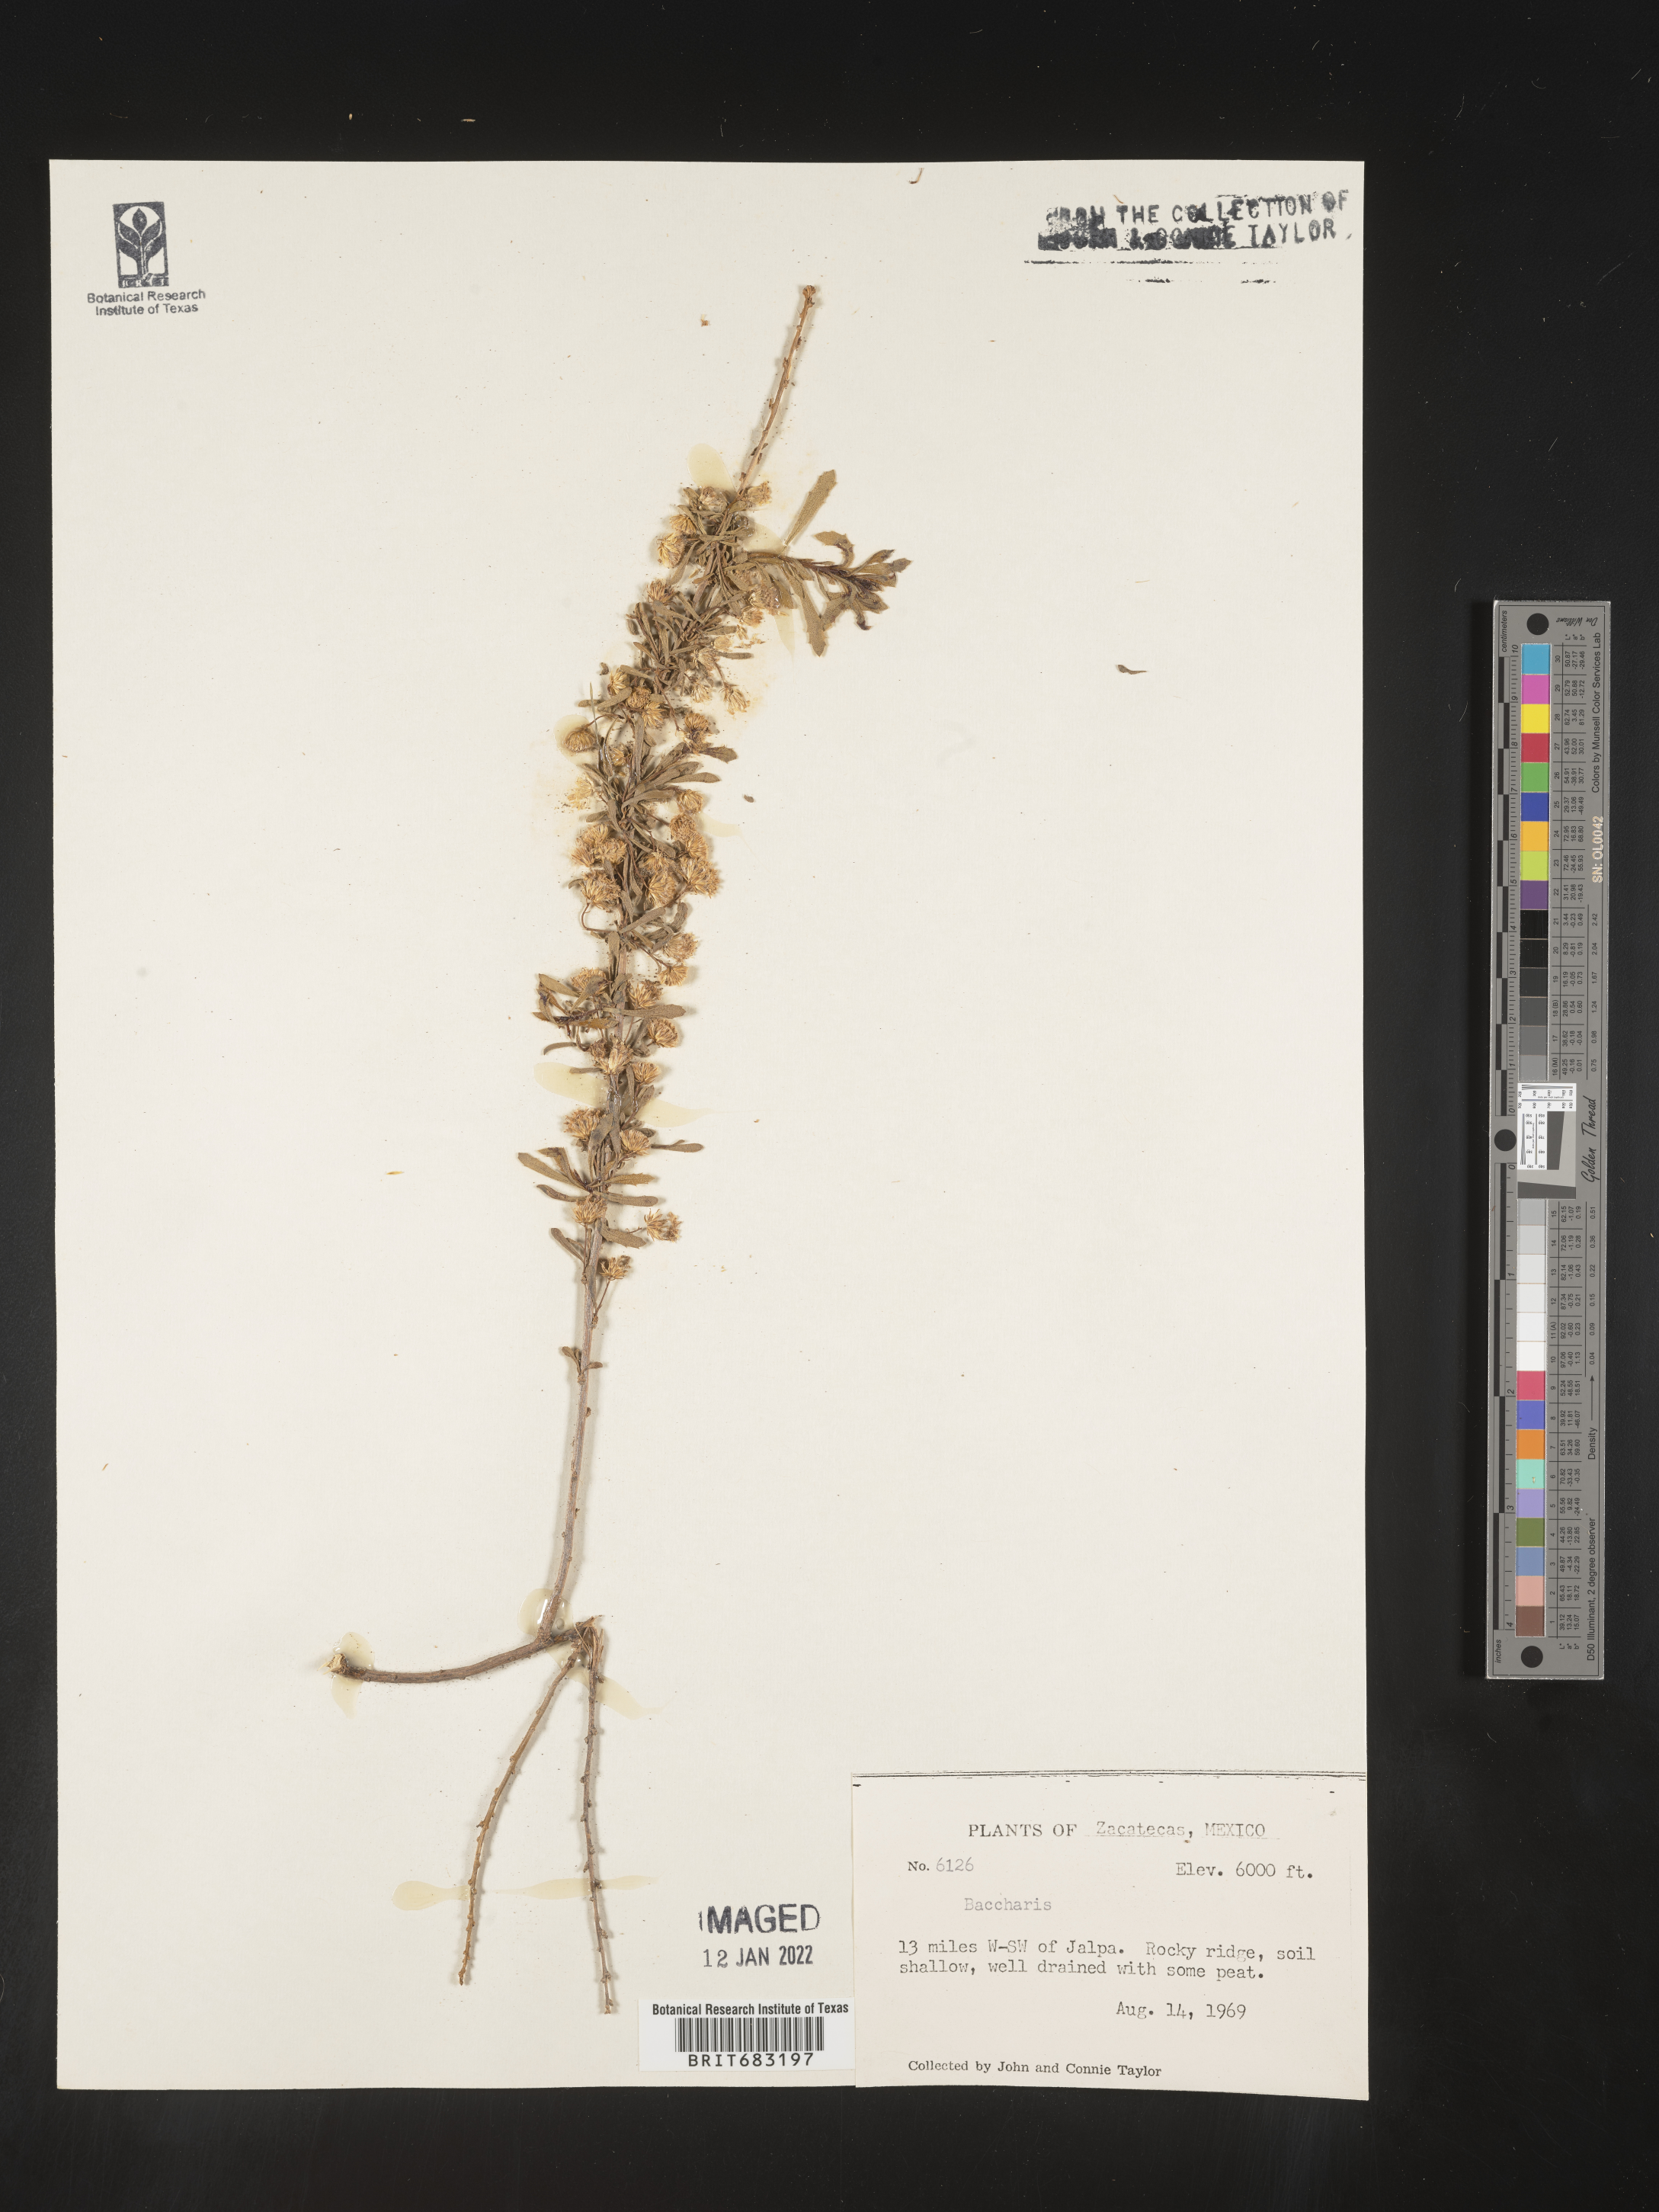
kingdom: Plantae
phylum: Tracheophyta
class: Magnoliopsida
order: Asterales
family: Asteraceae
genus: Baccharis
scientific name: Baccharis
